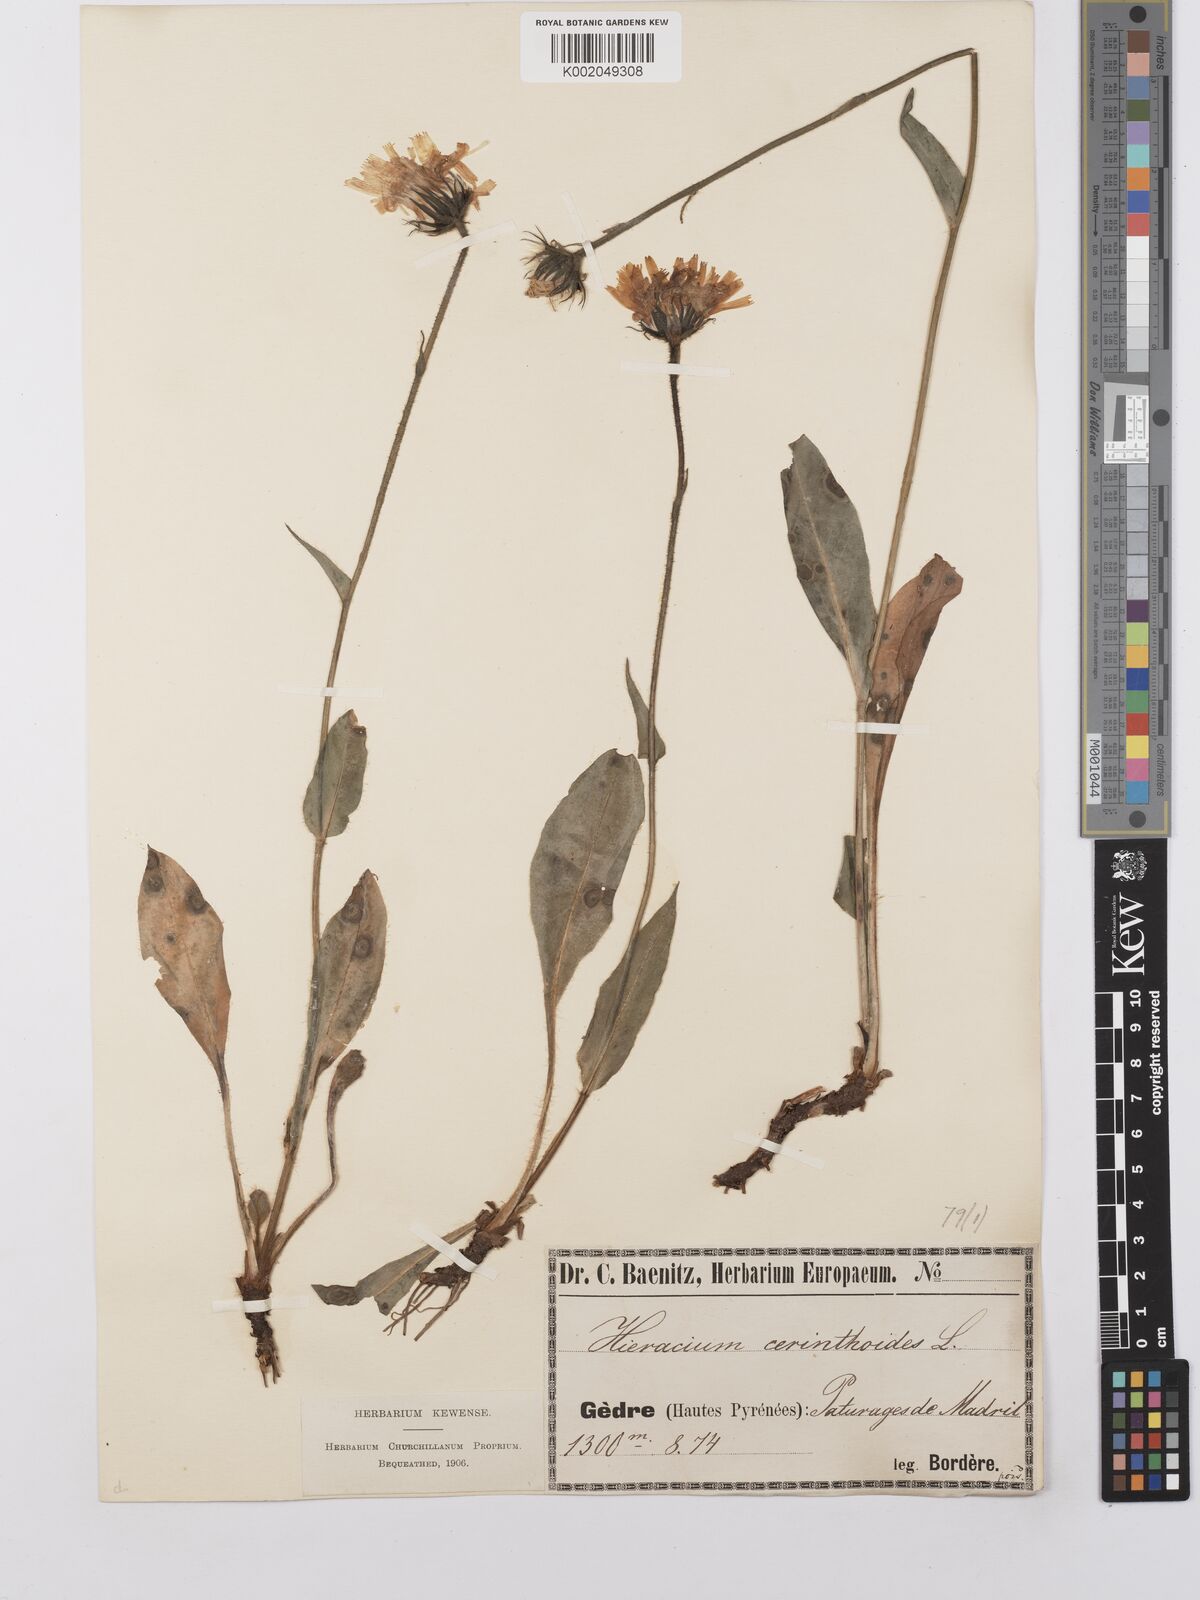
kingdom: Plantae
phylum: Tracheophyta
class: Magnoliopsida
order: Asterales
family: Asteraceae
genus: Hieracium
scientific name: Hieracium cerinthoides
